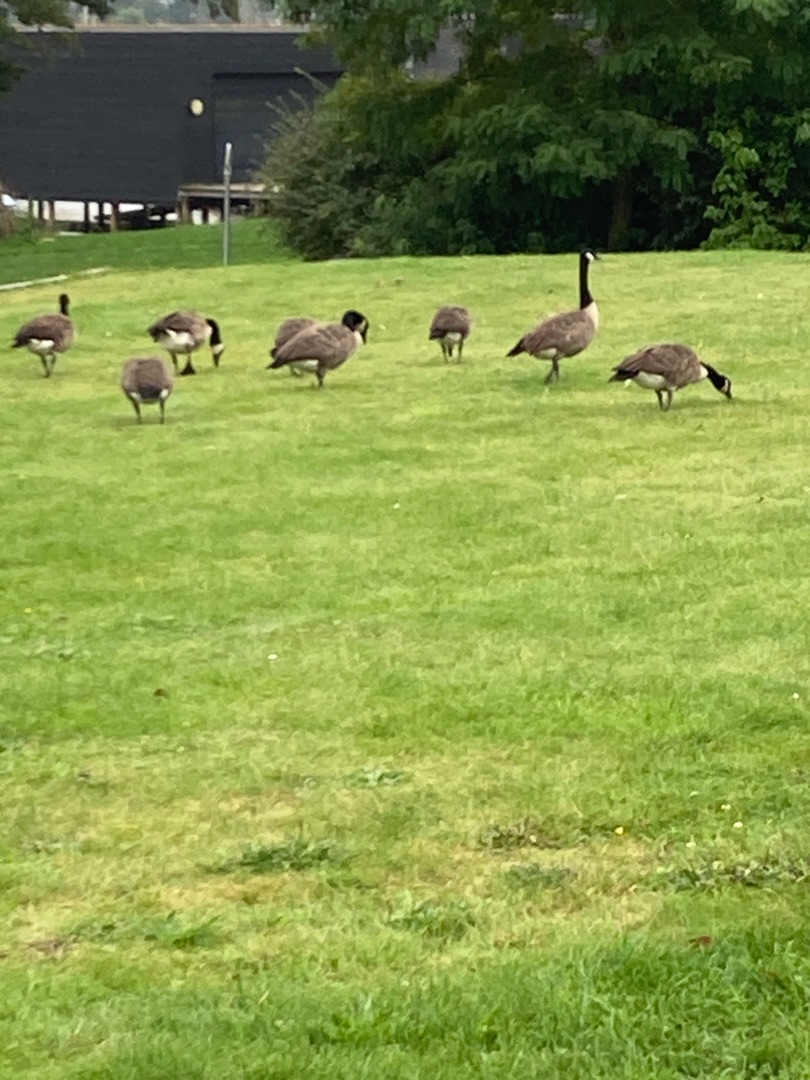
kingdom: Animalia
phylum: Chordata
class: Aves
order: Anseriformes
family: Anatidae
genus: Branta
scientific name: Branta canadensis
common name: Canadagås
